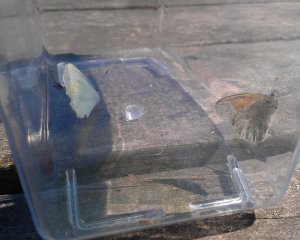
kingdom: Animalia
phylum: Arthropoda
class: Insecta
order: Lepidoptera
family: Nymphalidae
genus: Coenonympha
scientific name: Coenonympha tullia
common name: Large Heath
